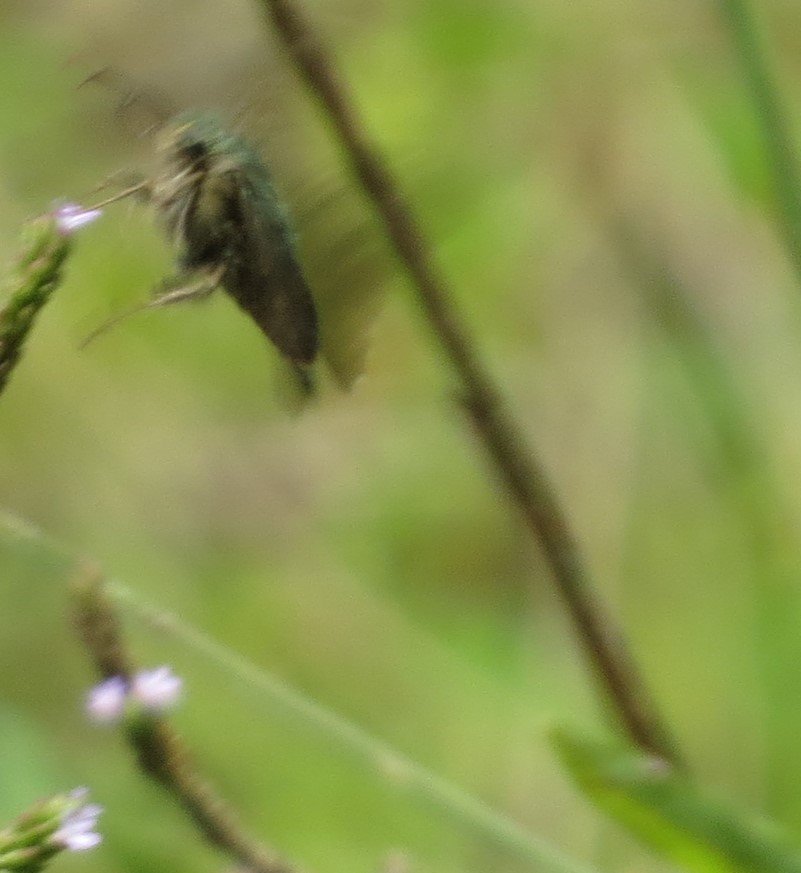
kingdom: Animalia
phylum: Arthropoda
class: Insecta
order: Lepidoptera
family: Hesperiidae
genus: Urbanus
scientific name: Urbanus proteus
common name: Long-tailed Skipper
